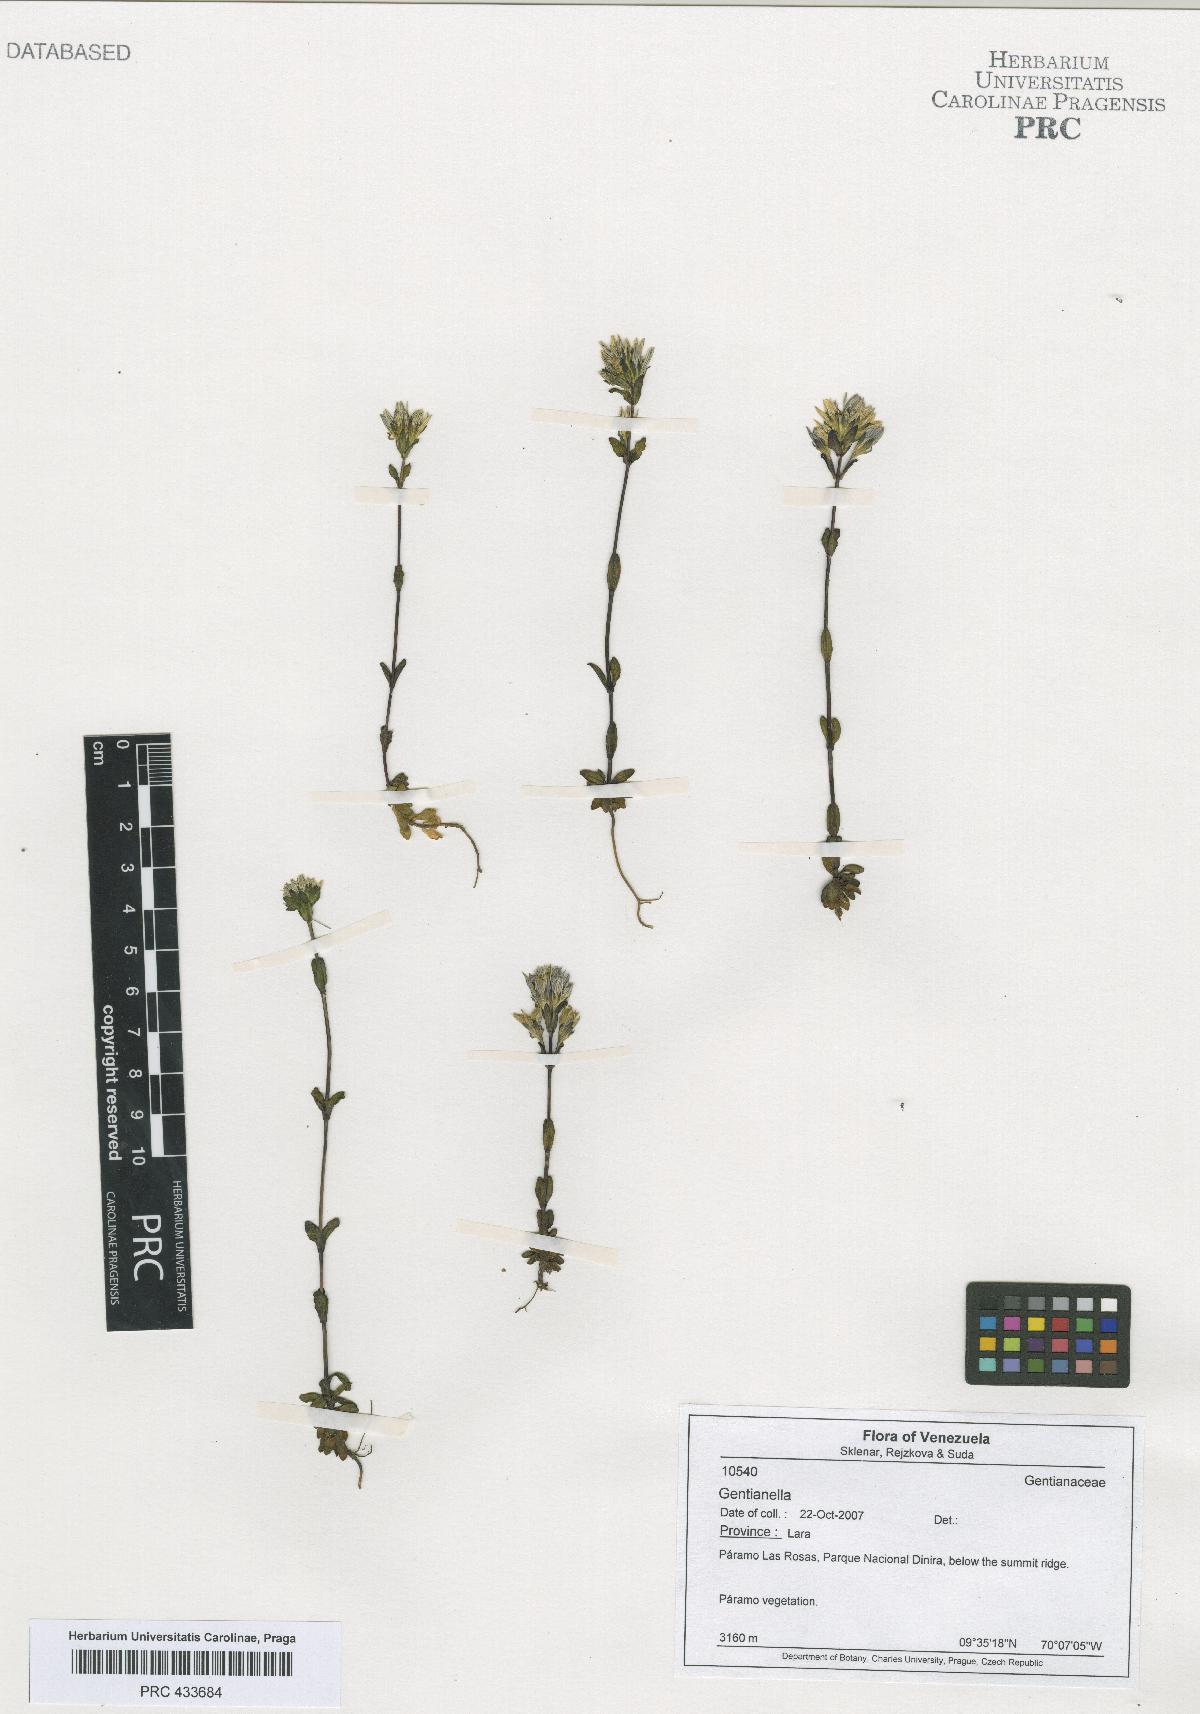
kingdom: Plantae
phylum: Tracheophyta
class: Magnoliopsida
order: Gentianales
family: Gentianaceae
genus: Gentianella
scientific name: Gentianella
